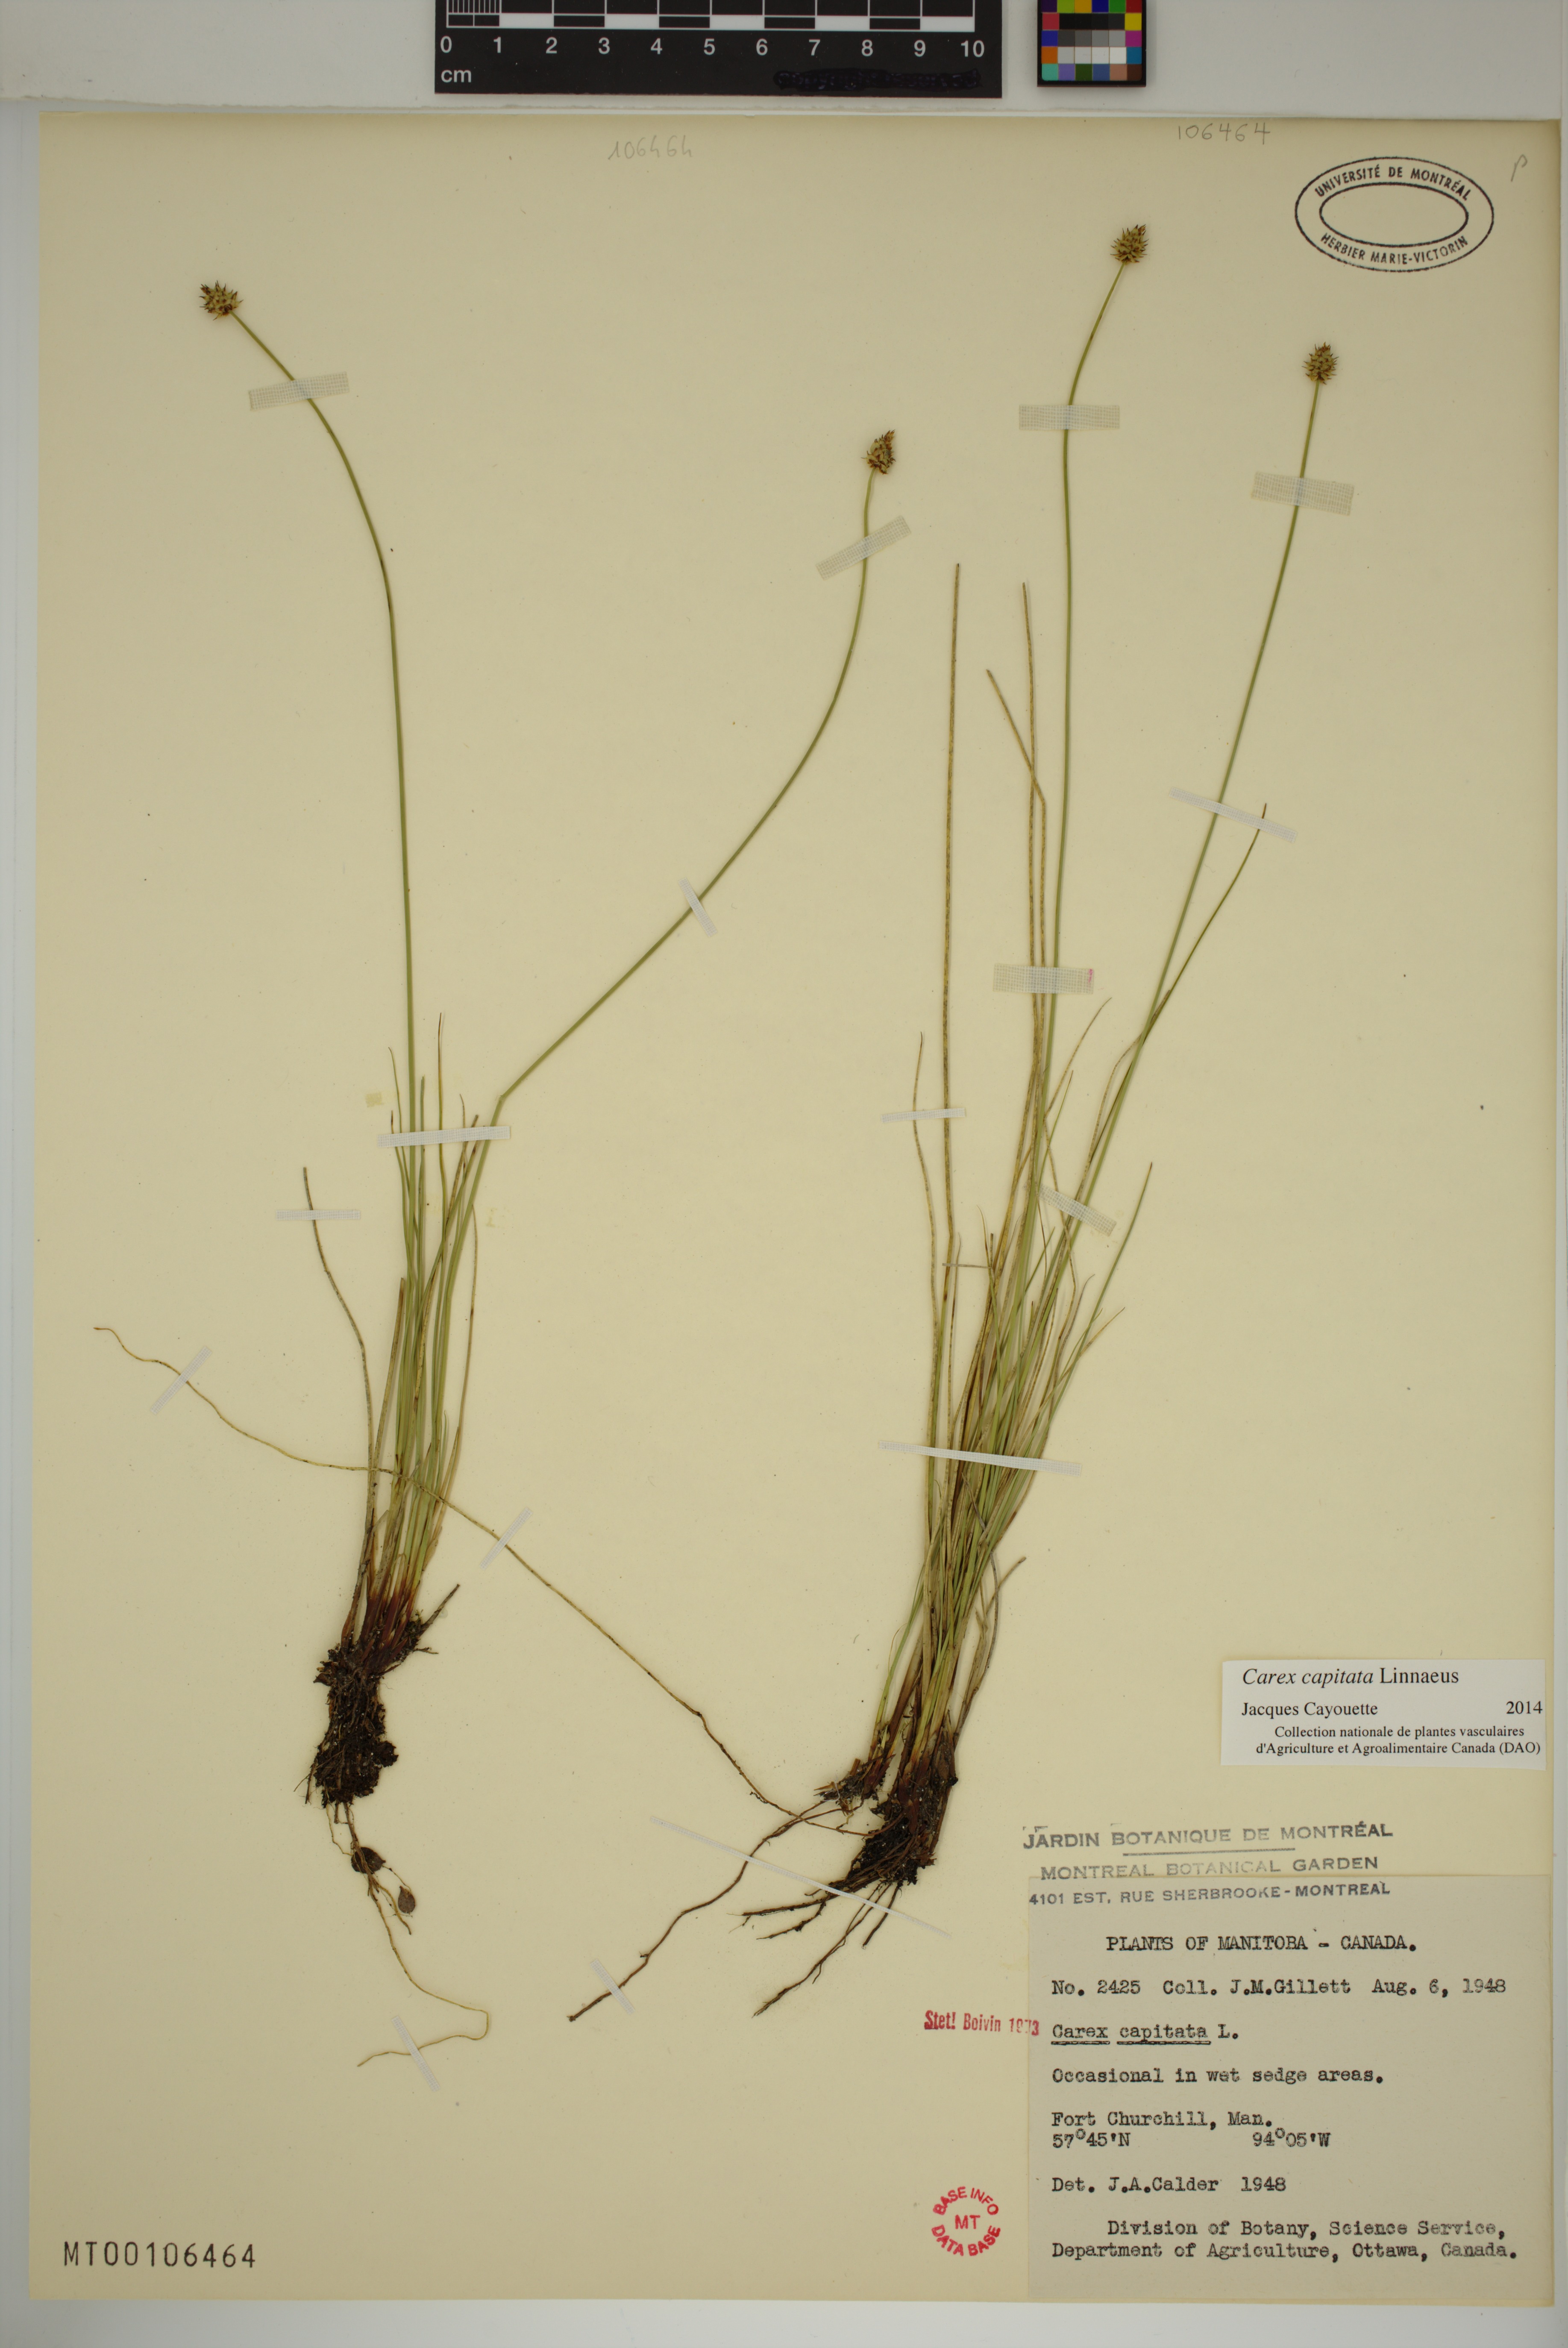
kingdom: Plantae
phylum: Tracheophyta
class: Liliopsida
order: Poales
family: Cyperaceae
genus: Carex
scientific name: Carex capitata
